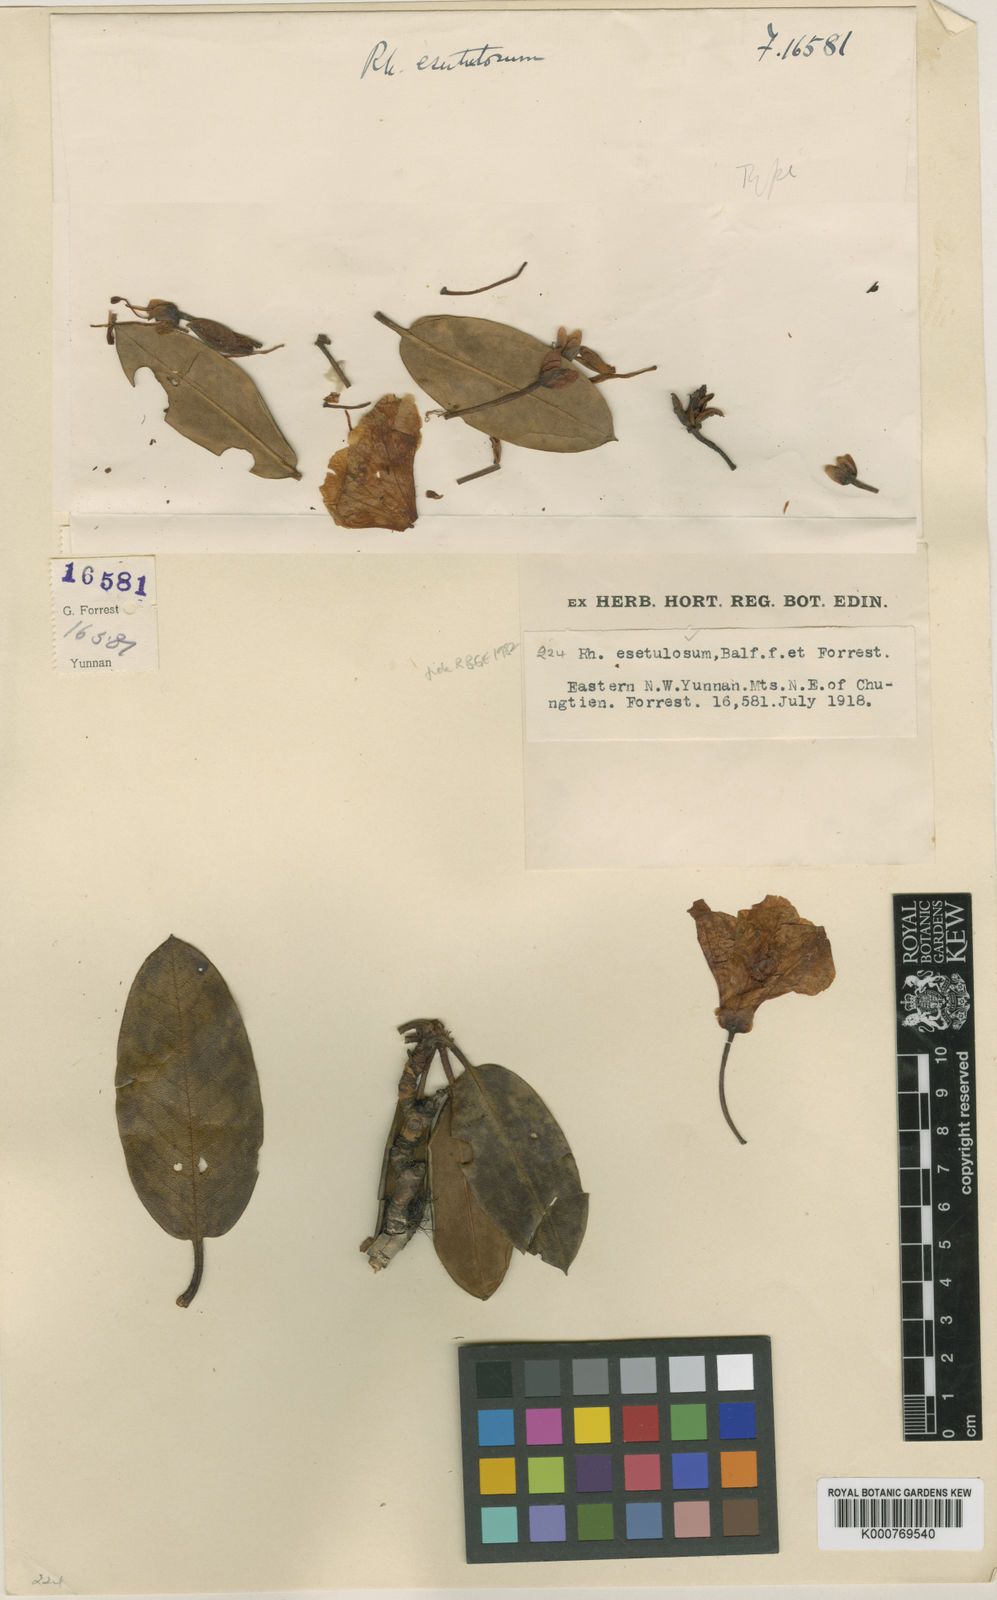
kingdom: Plantae
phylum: Tracheophyta
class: Magnoliopsida
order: Ericales
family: Ericaceae
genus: Rhododendron
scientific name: Rhododendron esetulosum
